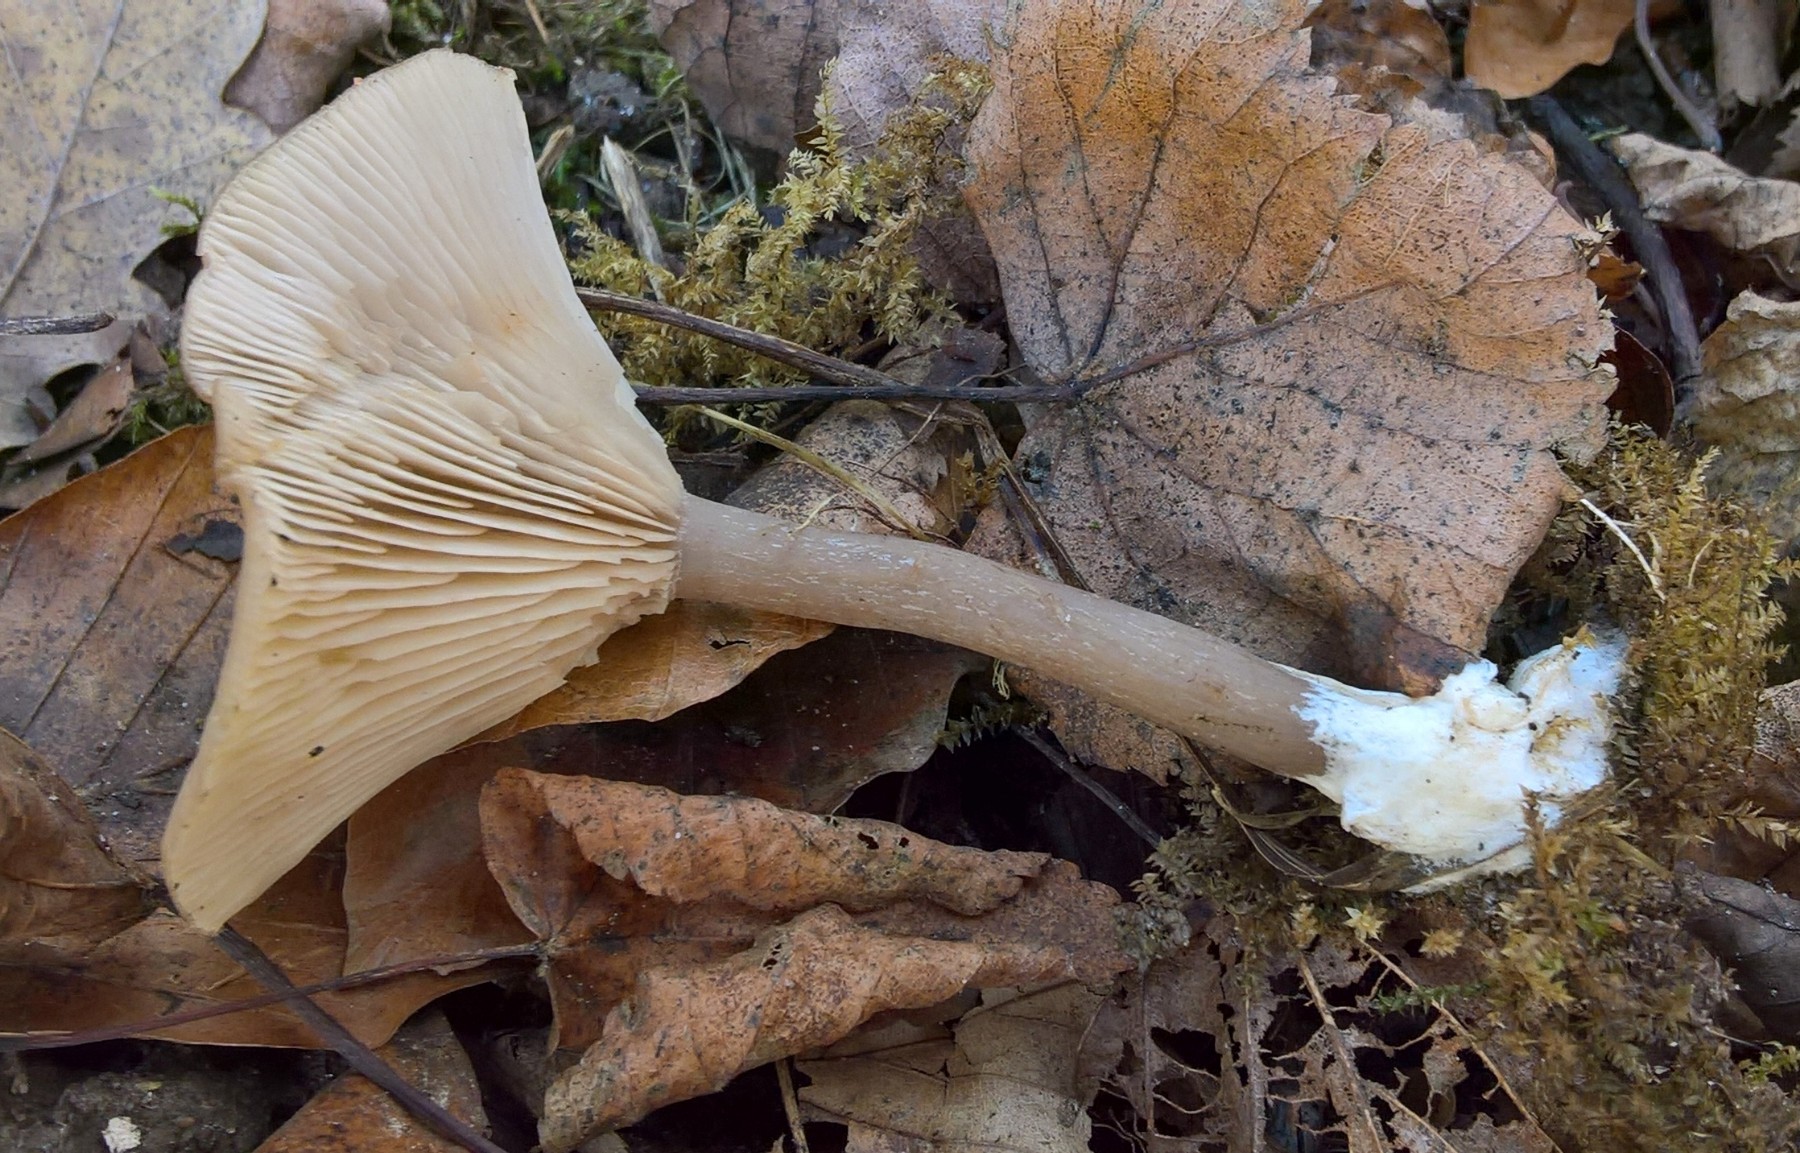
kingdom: Fungi
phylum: Basidiomycota
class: Agaricomycetes
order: Agaricales
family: Pseudoclitocybaceae
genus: Pseudoclitocybe
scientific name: Pseudoclitocybe cyathiformis
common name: almindelig bægertragthat
